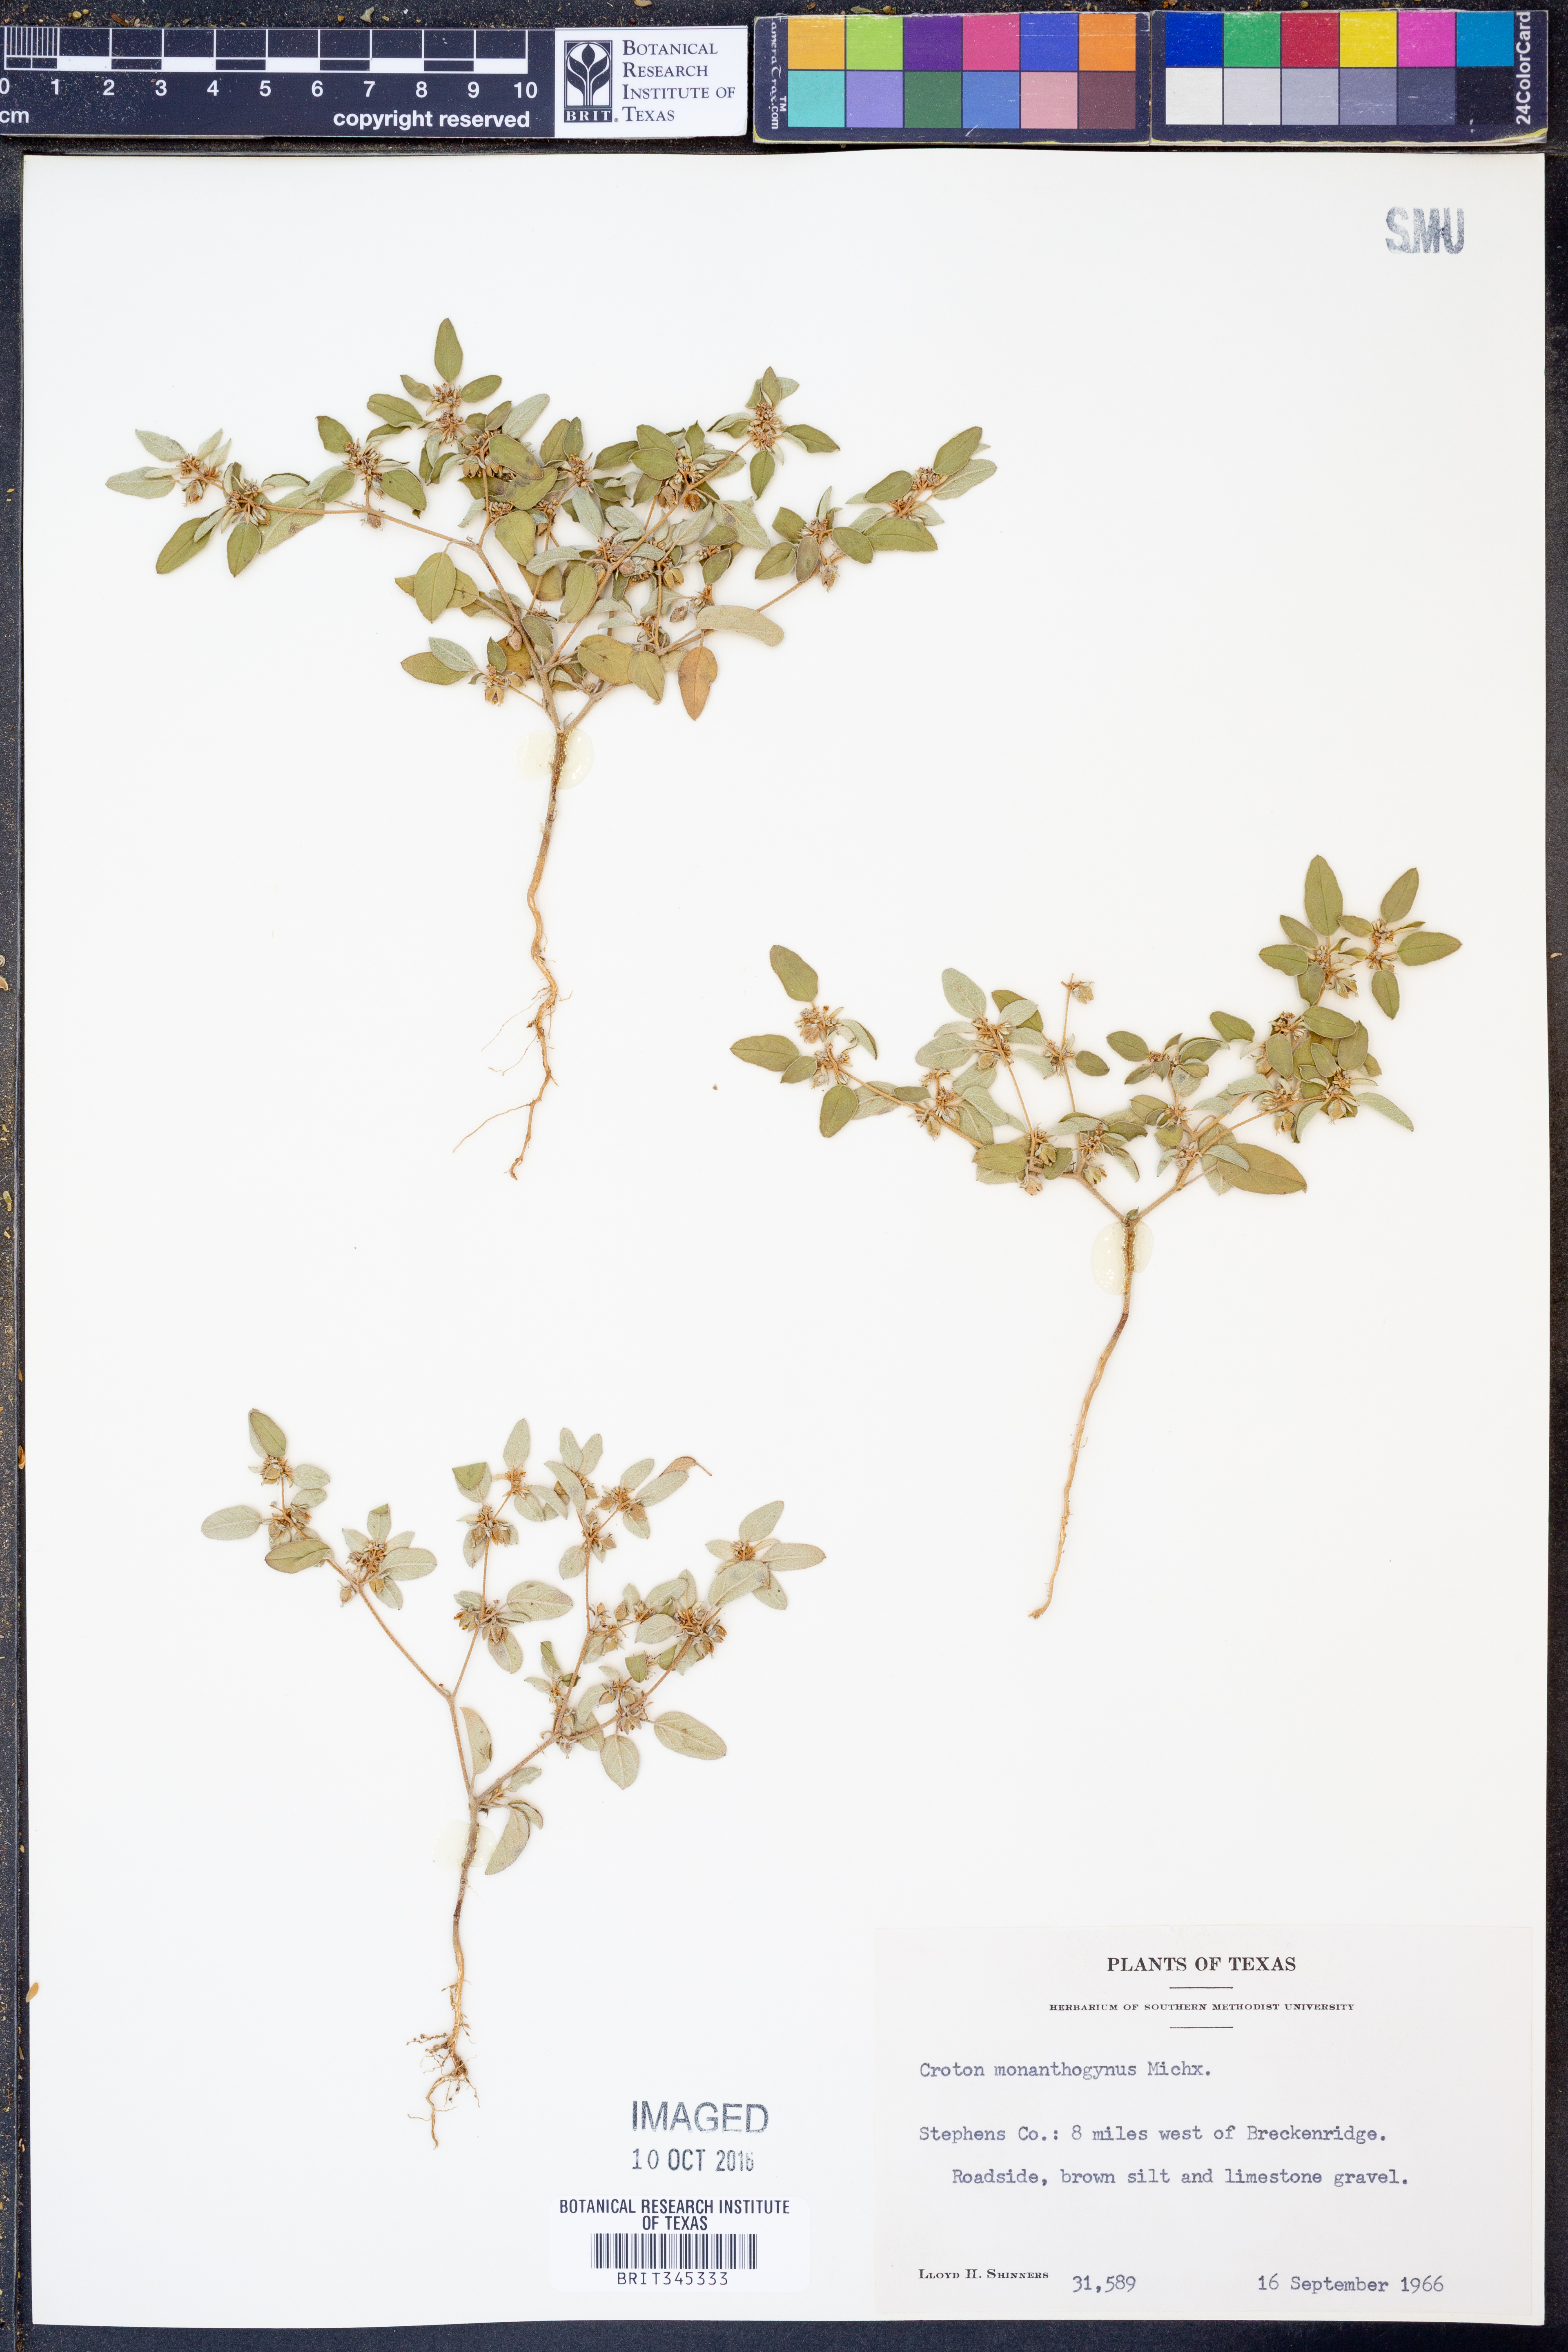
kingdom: Plantae
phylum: Tracheophyta
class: Magnoliopsida
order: Malpighiales
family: Euphorbiaceae
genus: Croton
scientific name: Croton monanthogynus
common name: One-seed croton
